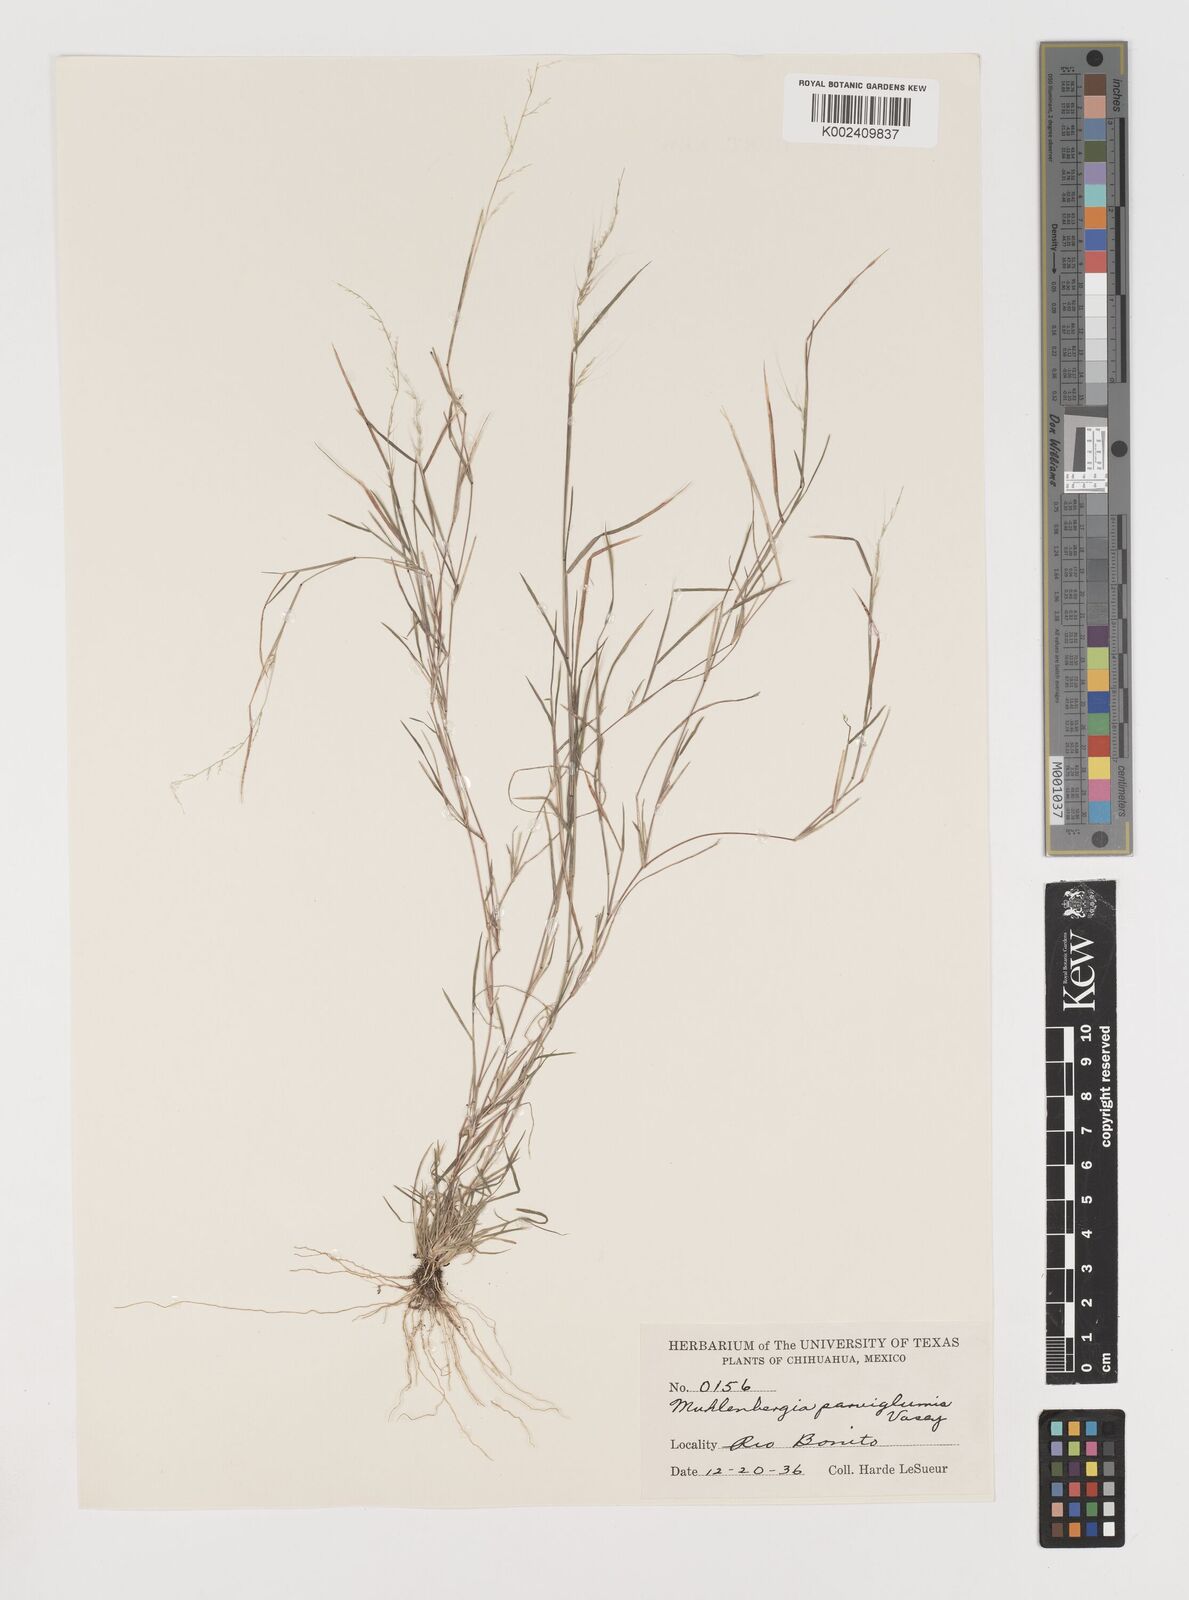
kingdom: Plantae
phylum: Tracheophyta
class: Liliopsida
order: Poales
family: Poaceae
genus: Muhlenbergia
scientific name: Muhlenbergia spiciformis
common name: Longawn muhly
